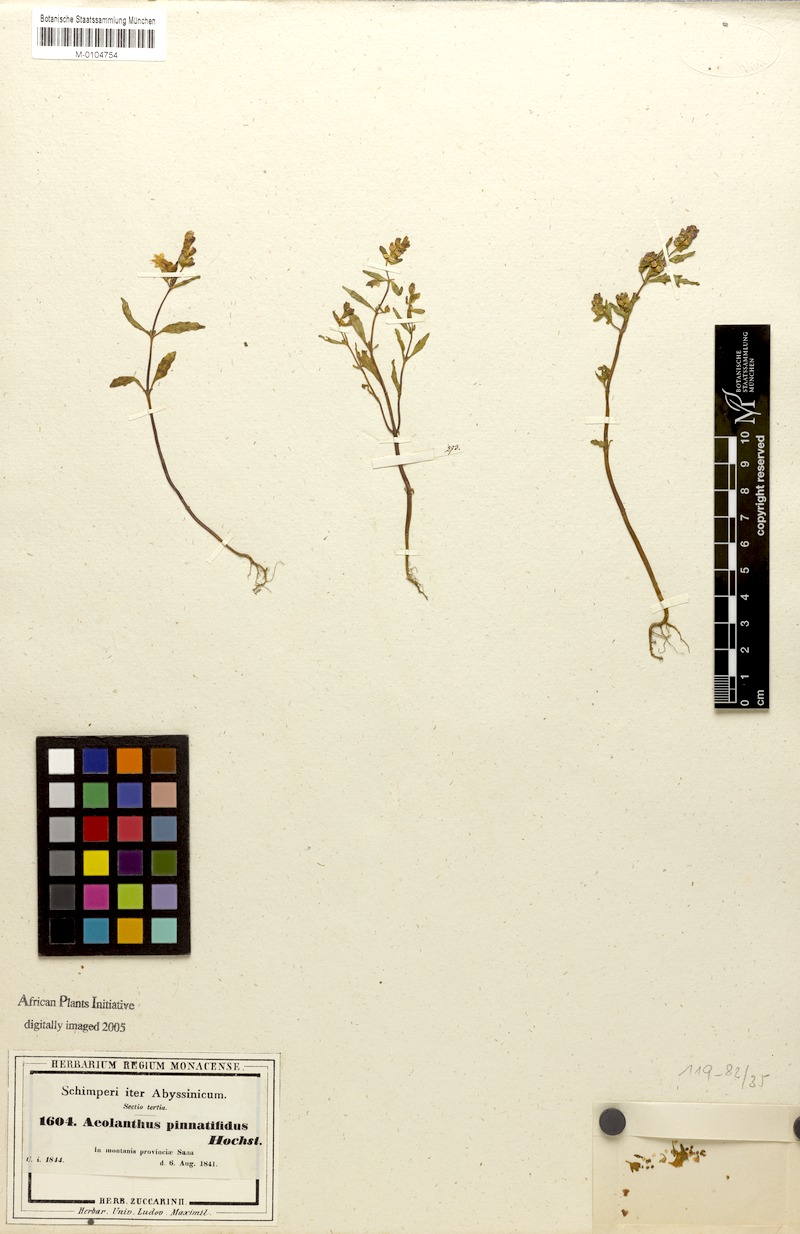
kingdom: Plantae
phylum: Tracheophyta
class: Magnoliopsida
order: Lamiales
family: Lamiaceae
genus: Aeollanthus
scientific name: Aeollanthus pinnatifidus
